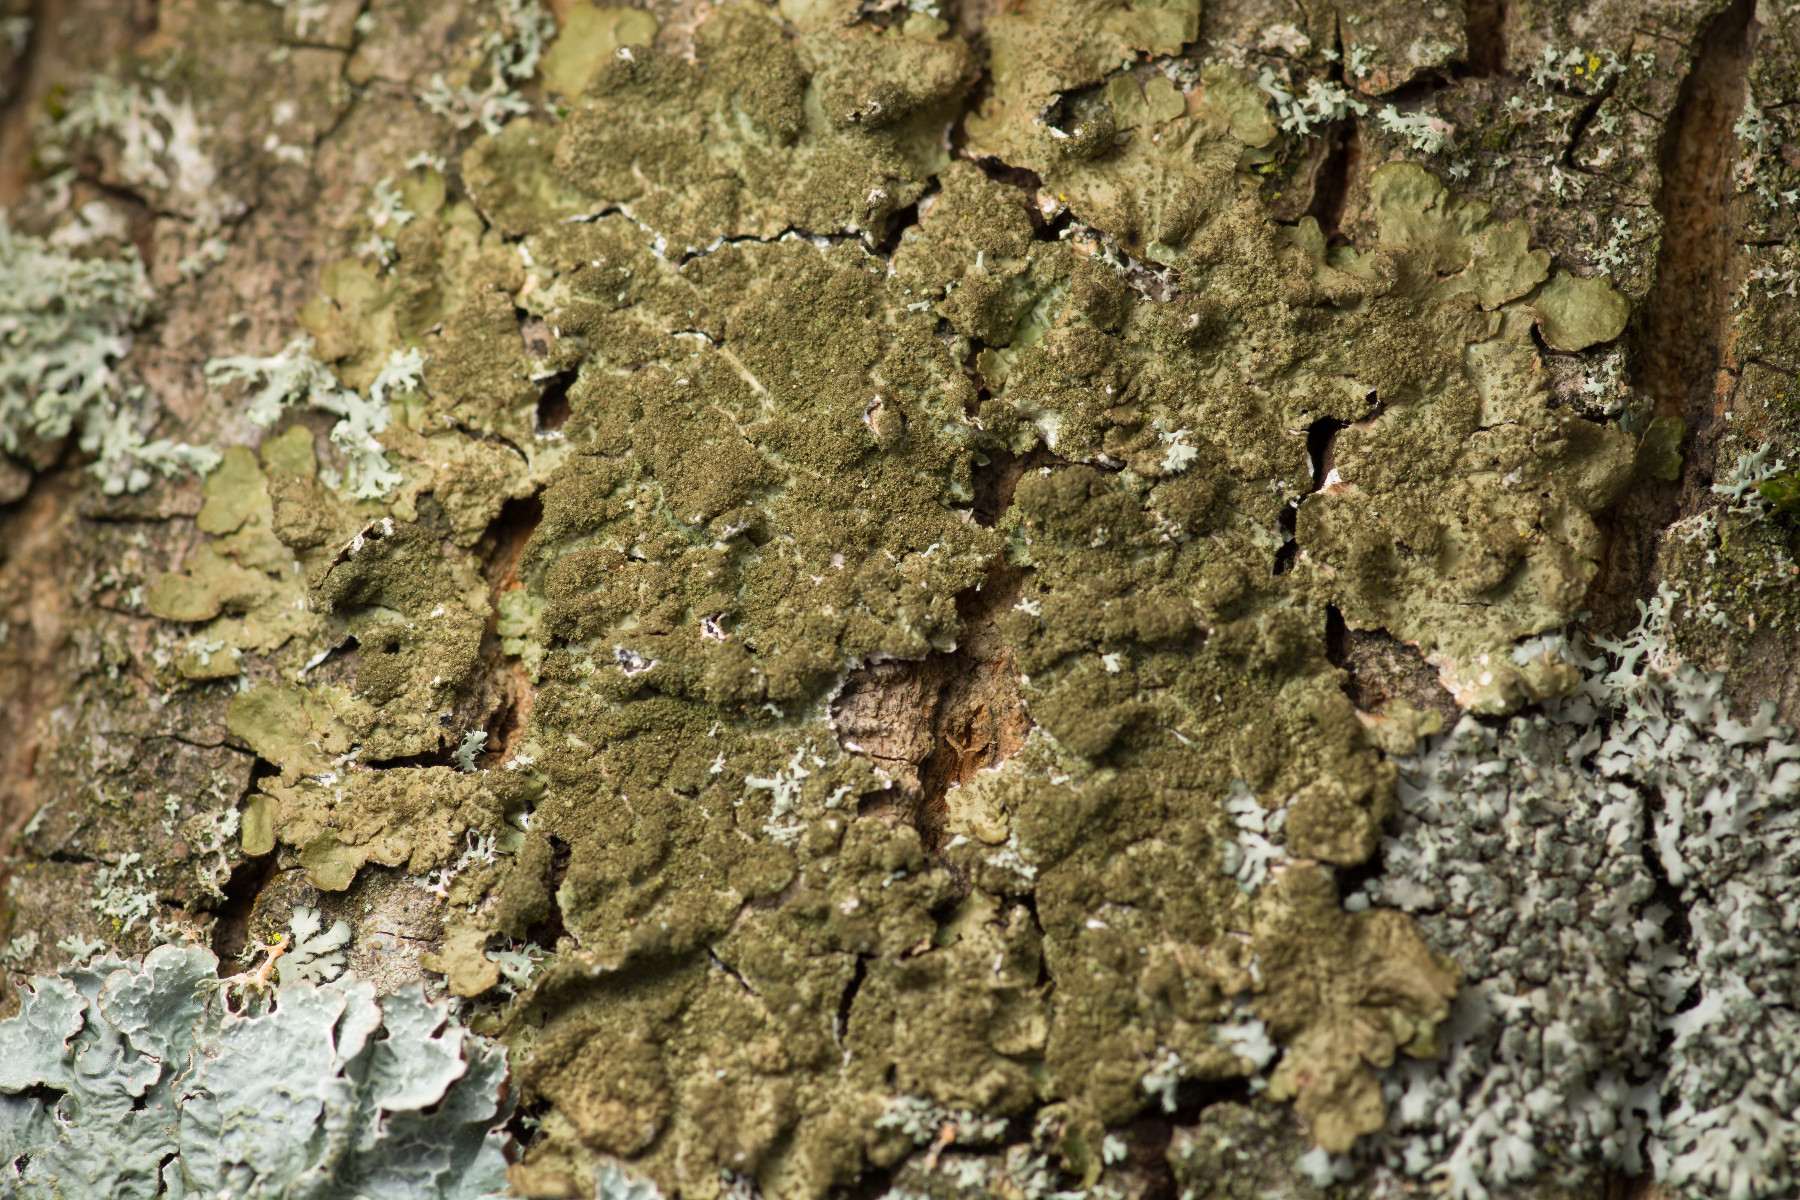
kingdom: Fungi
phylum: Ascomycota
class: Lecanoromycetes
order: Lecanorales
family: Parmeliaceae
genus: Melanelixia
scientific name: Melanelixia subaurifera
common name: guldpudret skållav
